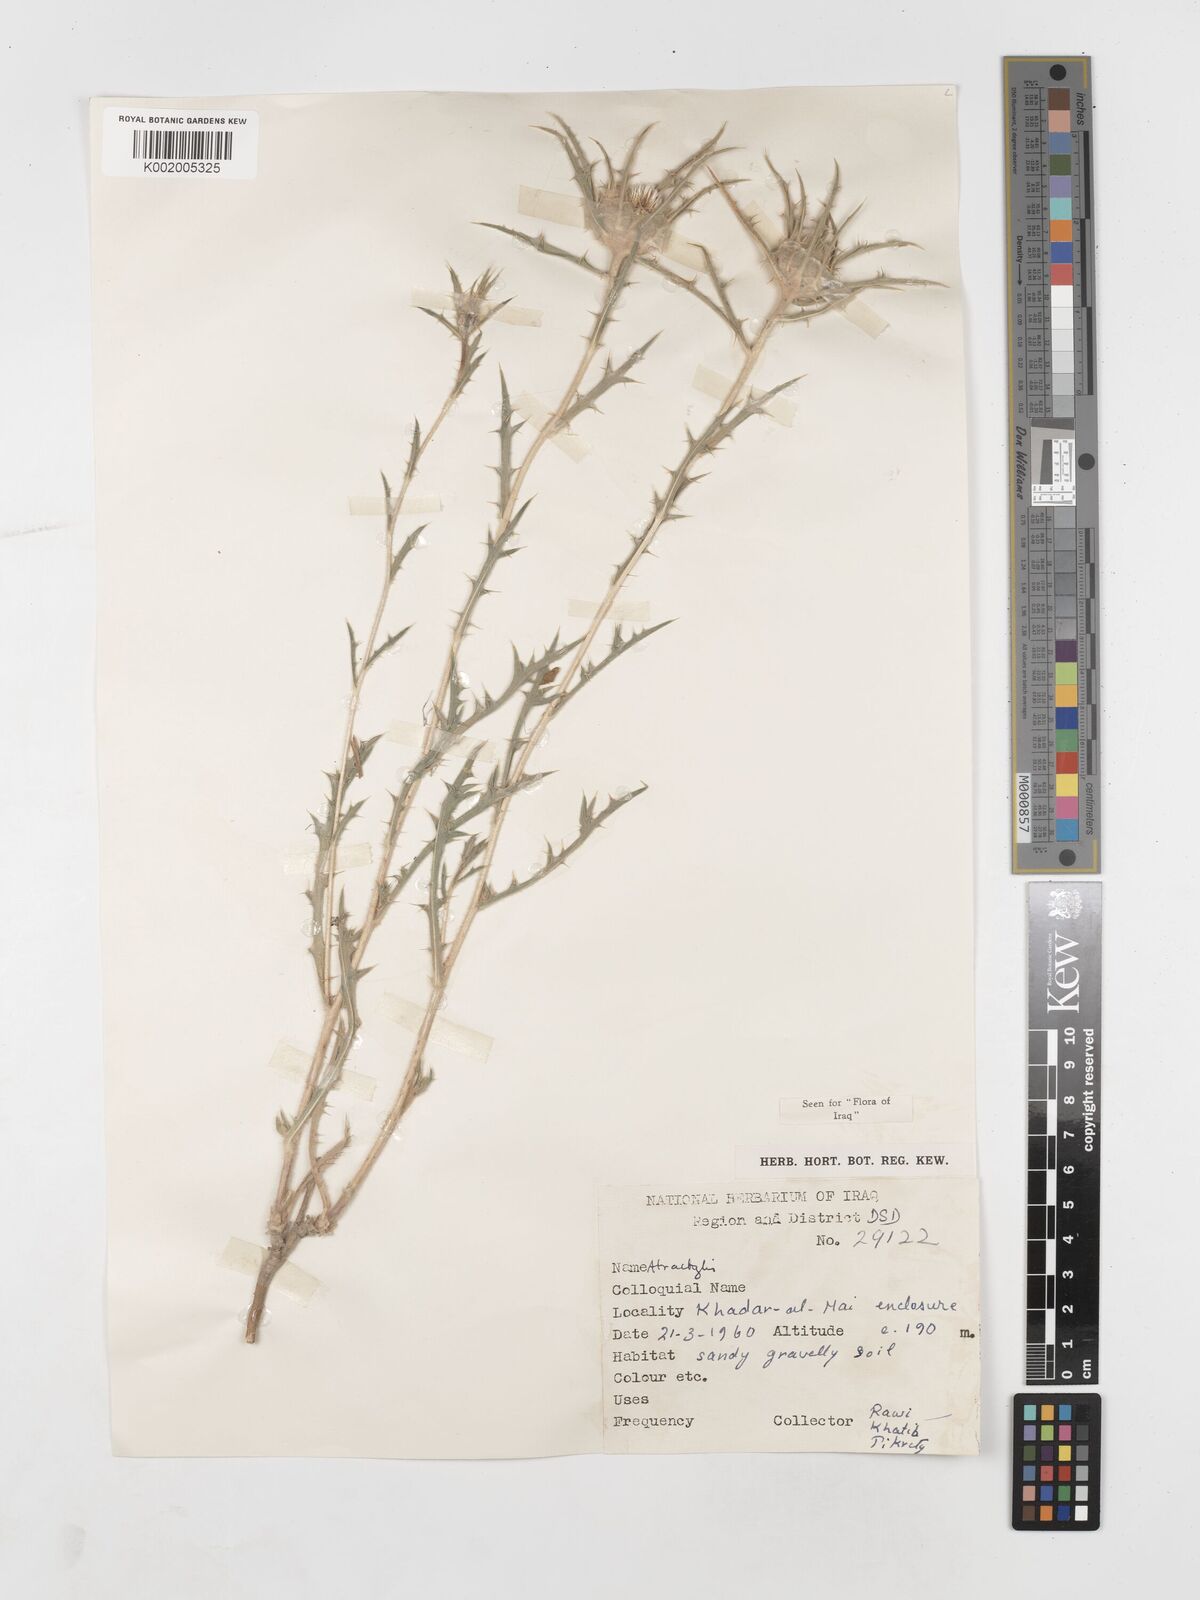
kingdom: Plantae
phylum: Tracheophyta
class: Magnoliopsida
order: Asterales
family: Asteraceae
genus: Atractylis
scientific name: Atractylis carduus
